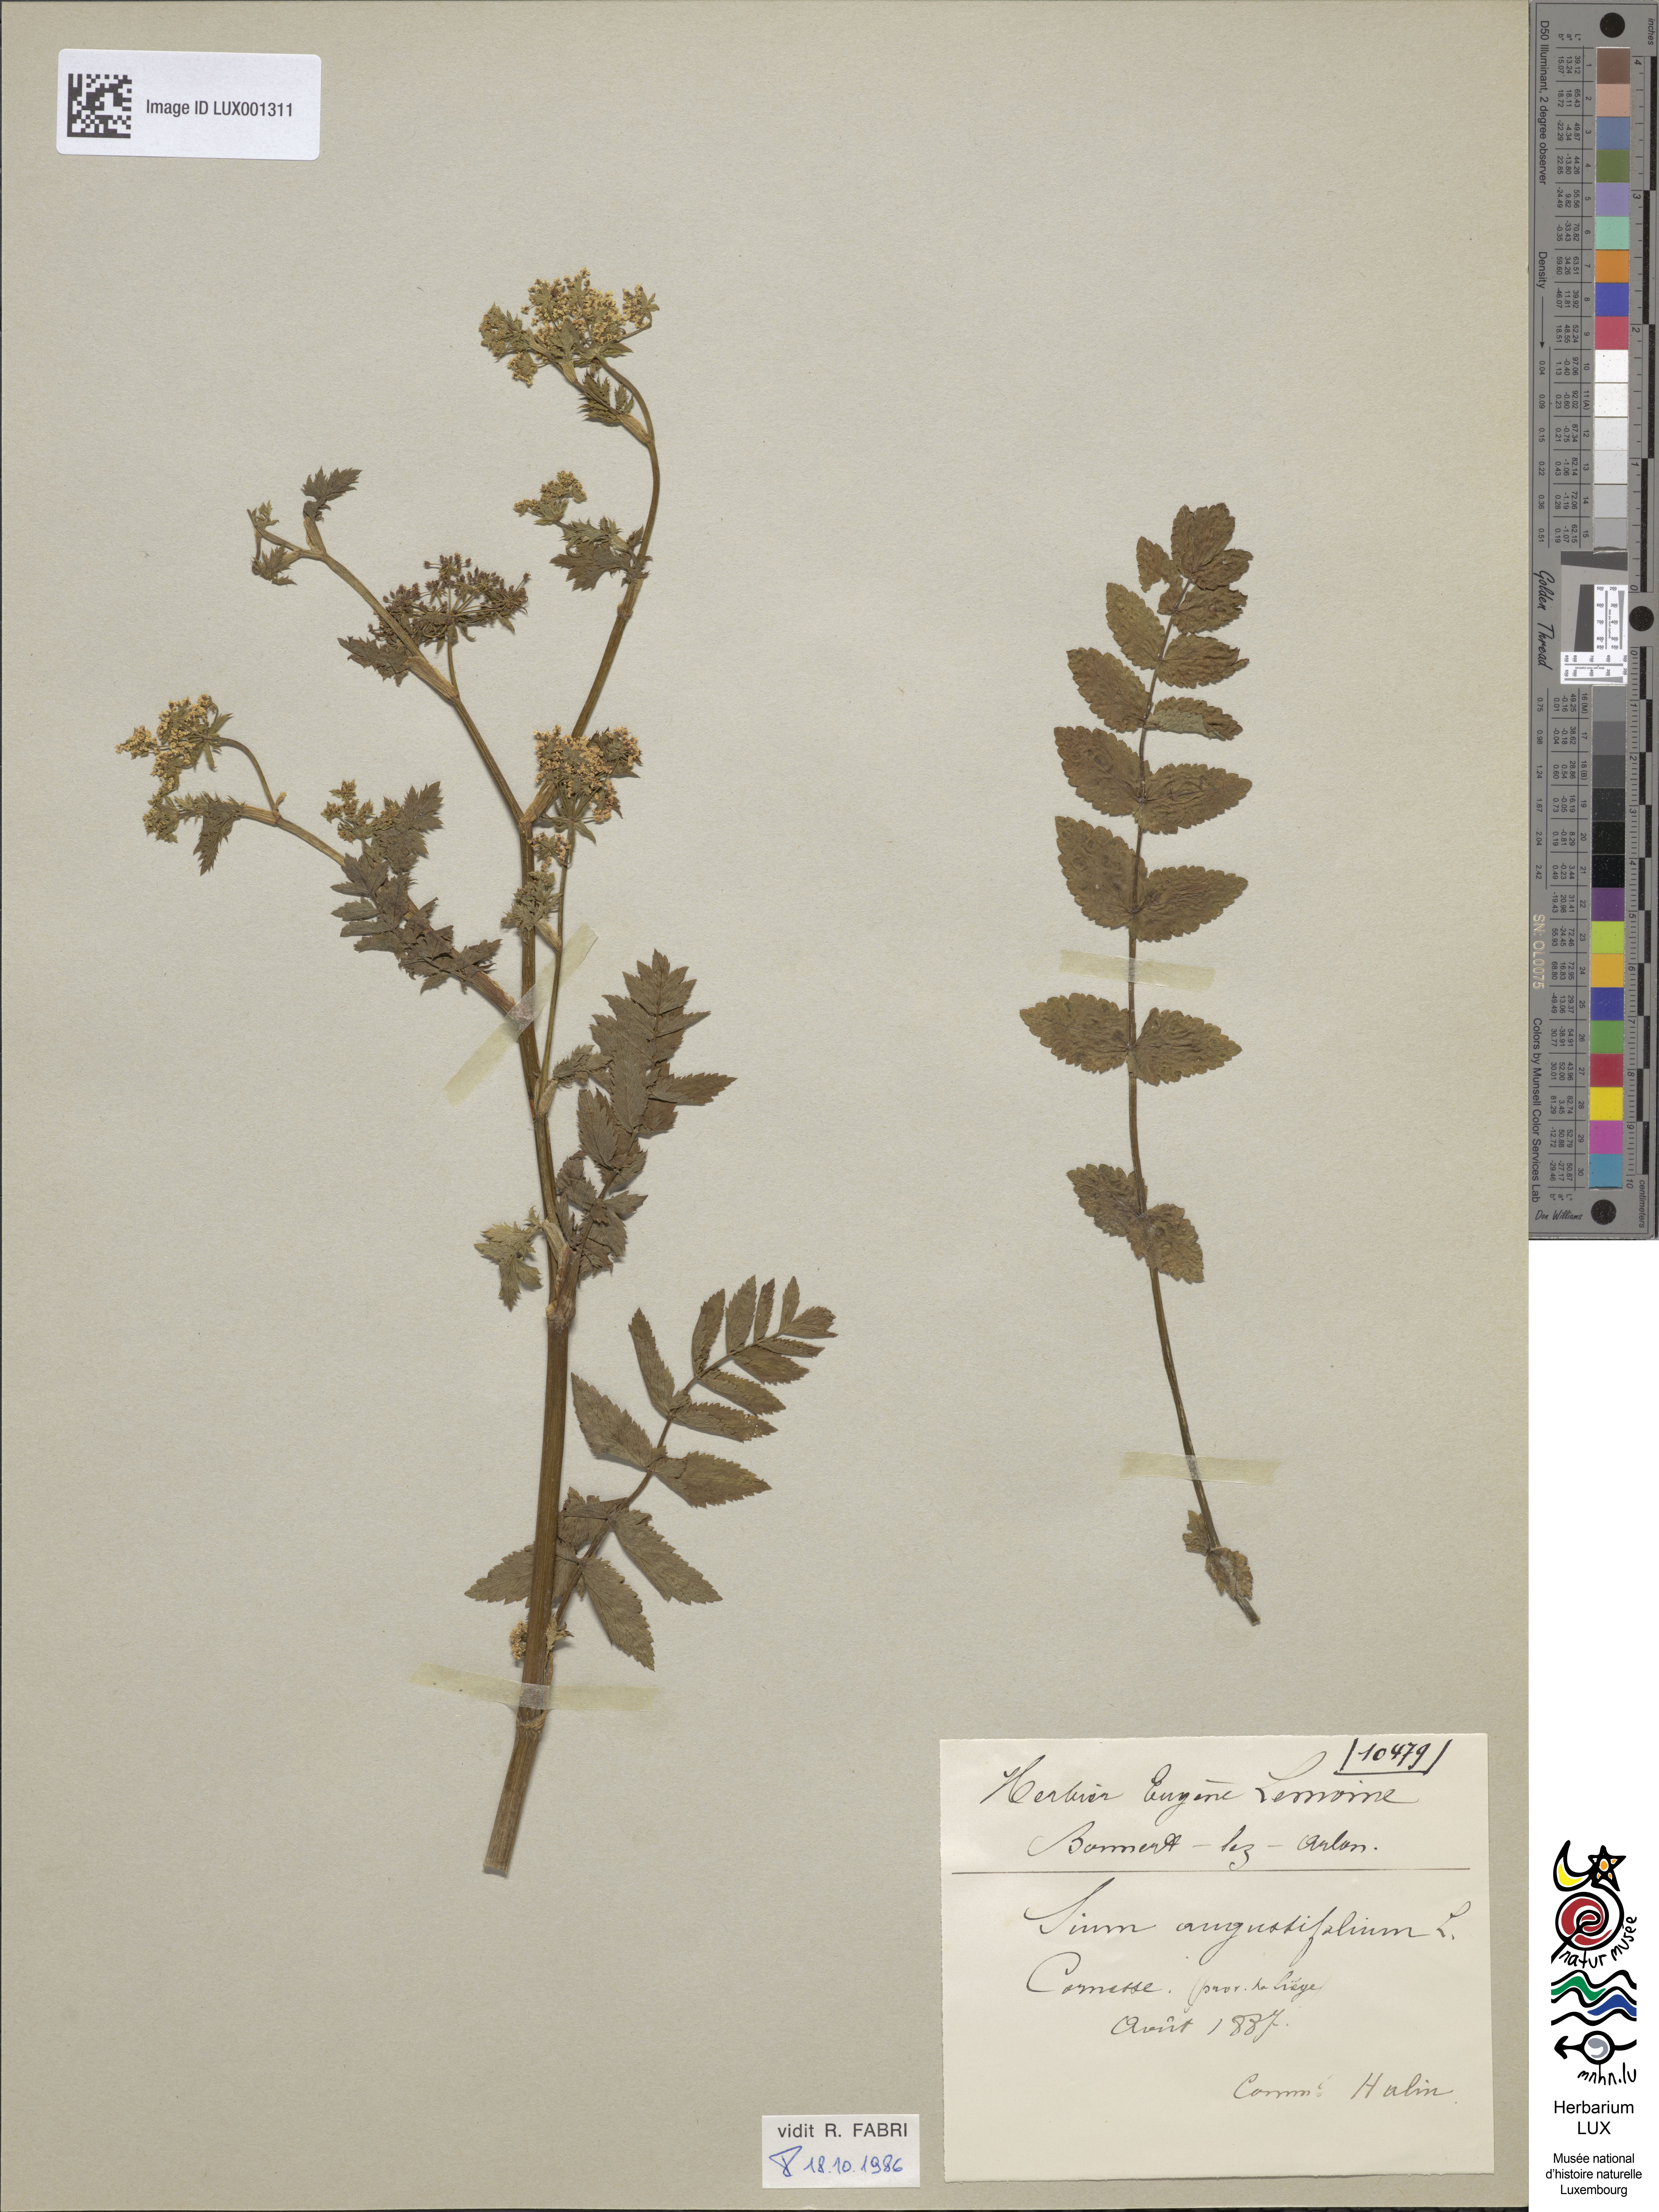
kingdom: Plantae
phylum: Tracheophyta
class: Magnoliopsida
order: Apiales
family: Apiaceae
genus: Berula
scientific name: Berula erecta
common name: Lesser water-parsnip
